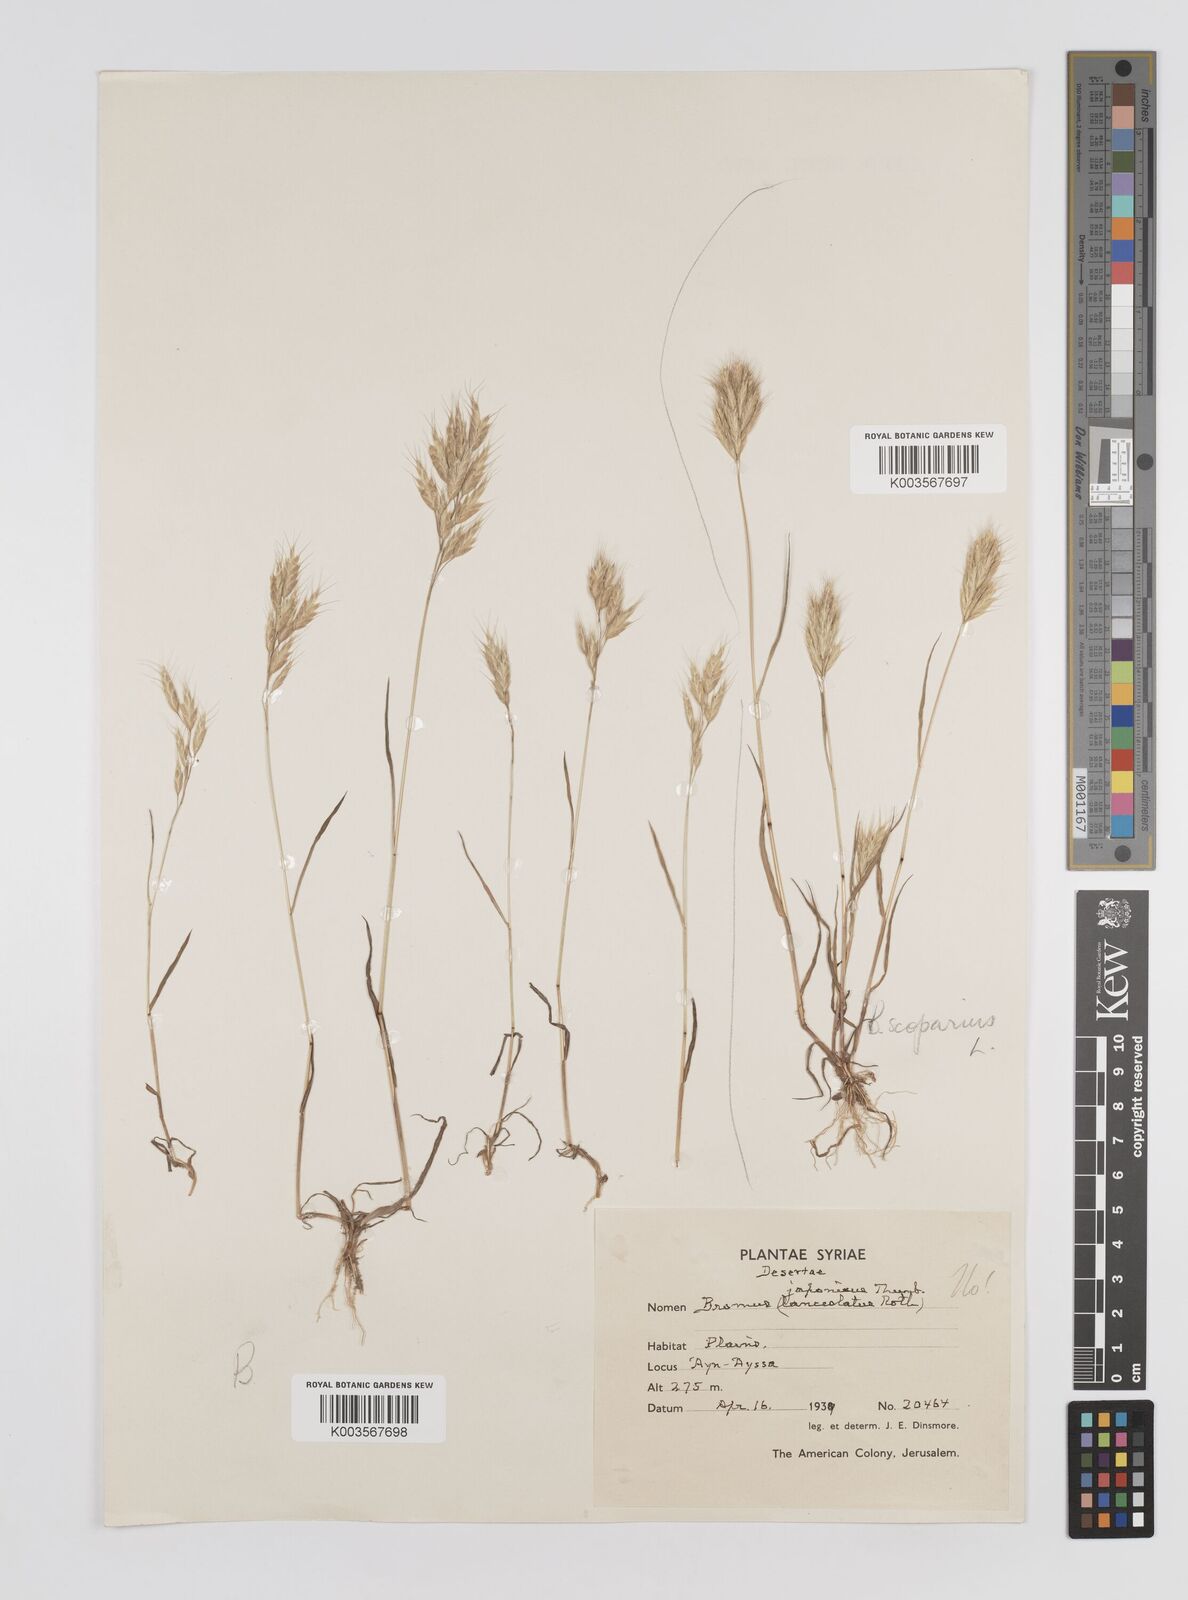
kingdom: Plantae
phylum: Tracheophyta
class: Liliopsida
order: Poales
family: Poaceae
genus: Bromus
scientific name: Bromus
